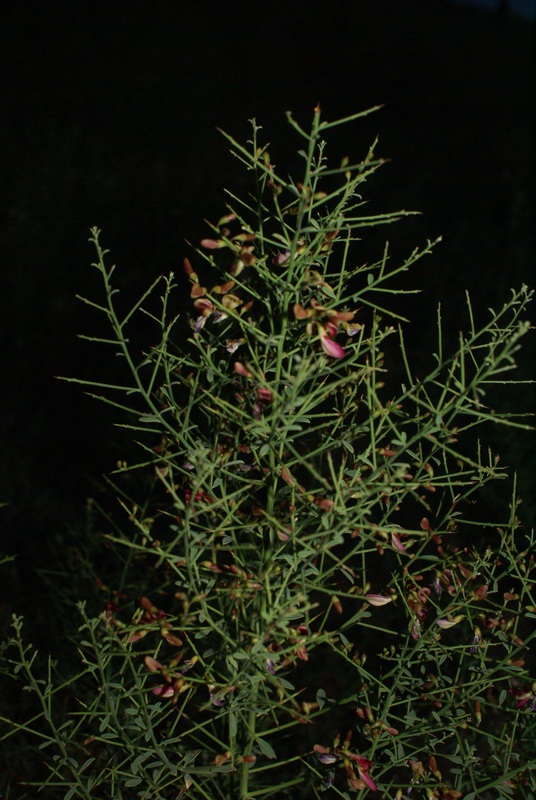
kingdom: Plantae
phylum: Tracheophyta
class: Magnoliopsida
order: Fabales
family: Fabaceae
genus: Alhagi
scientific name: Alhagi pseudalhagi
